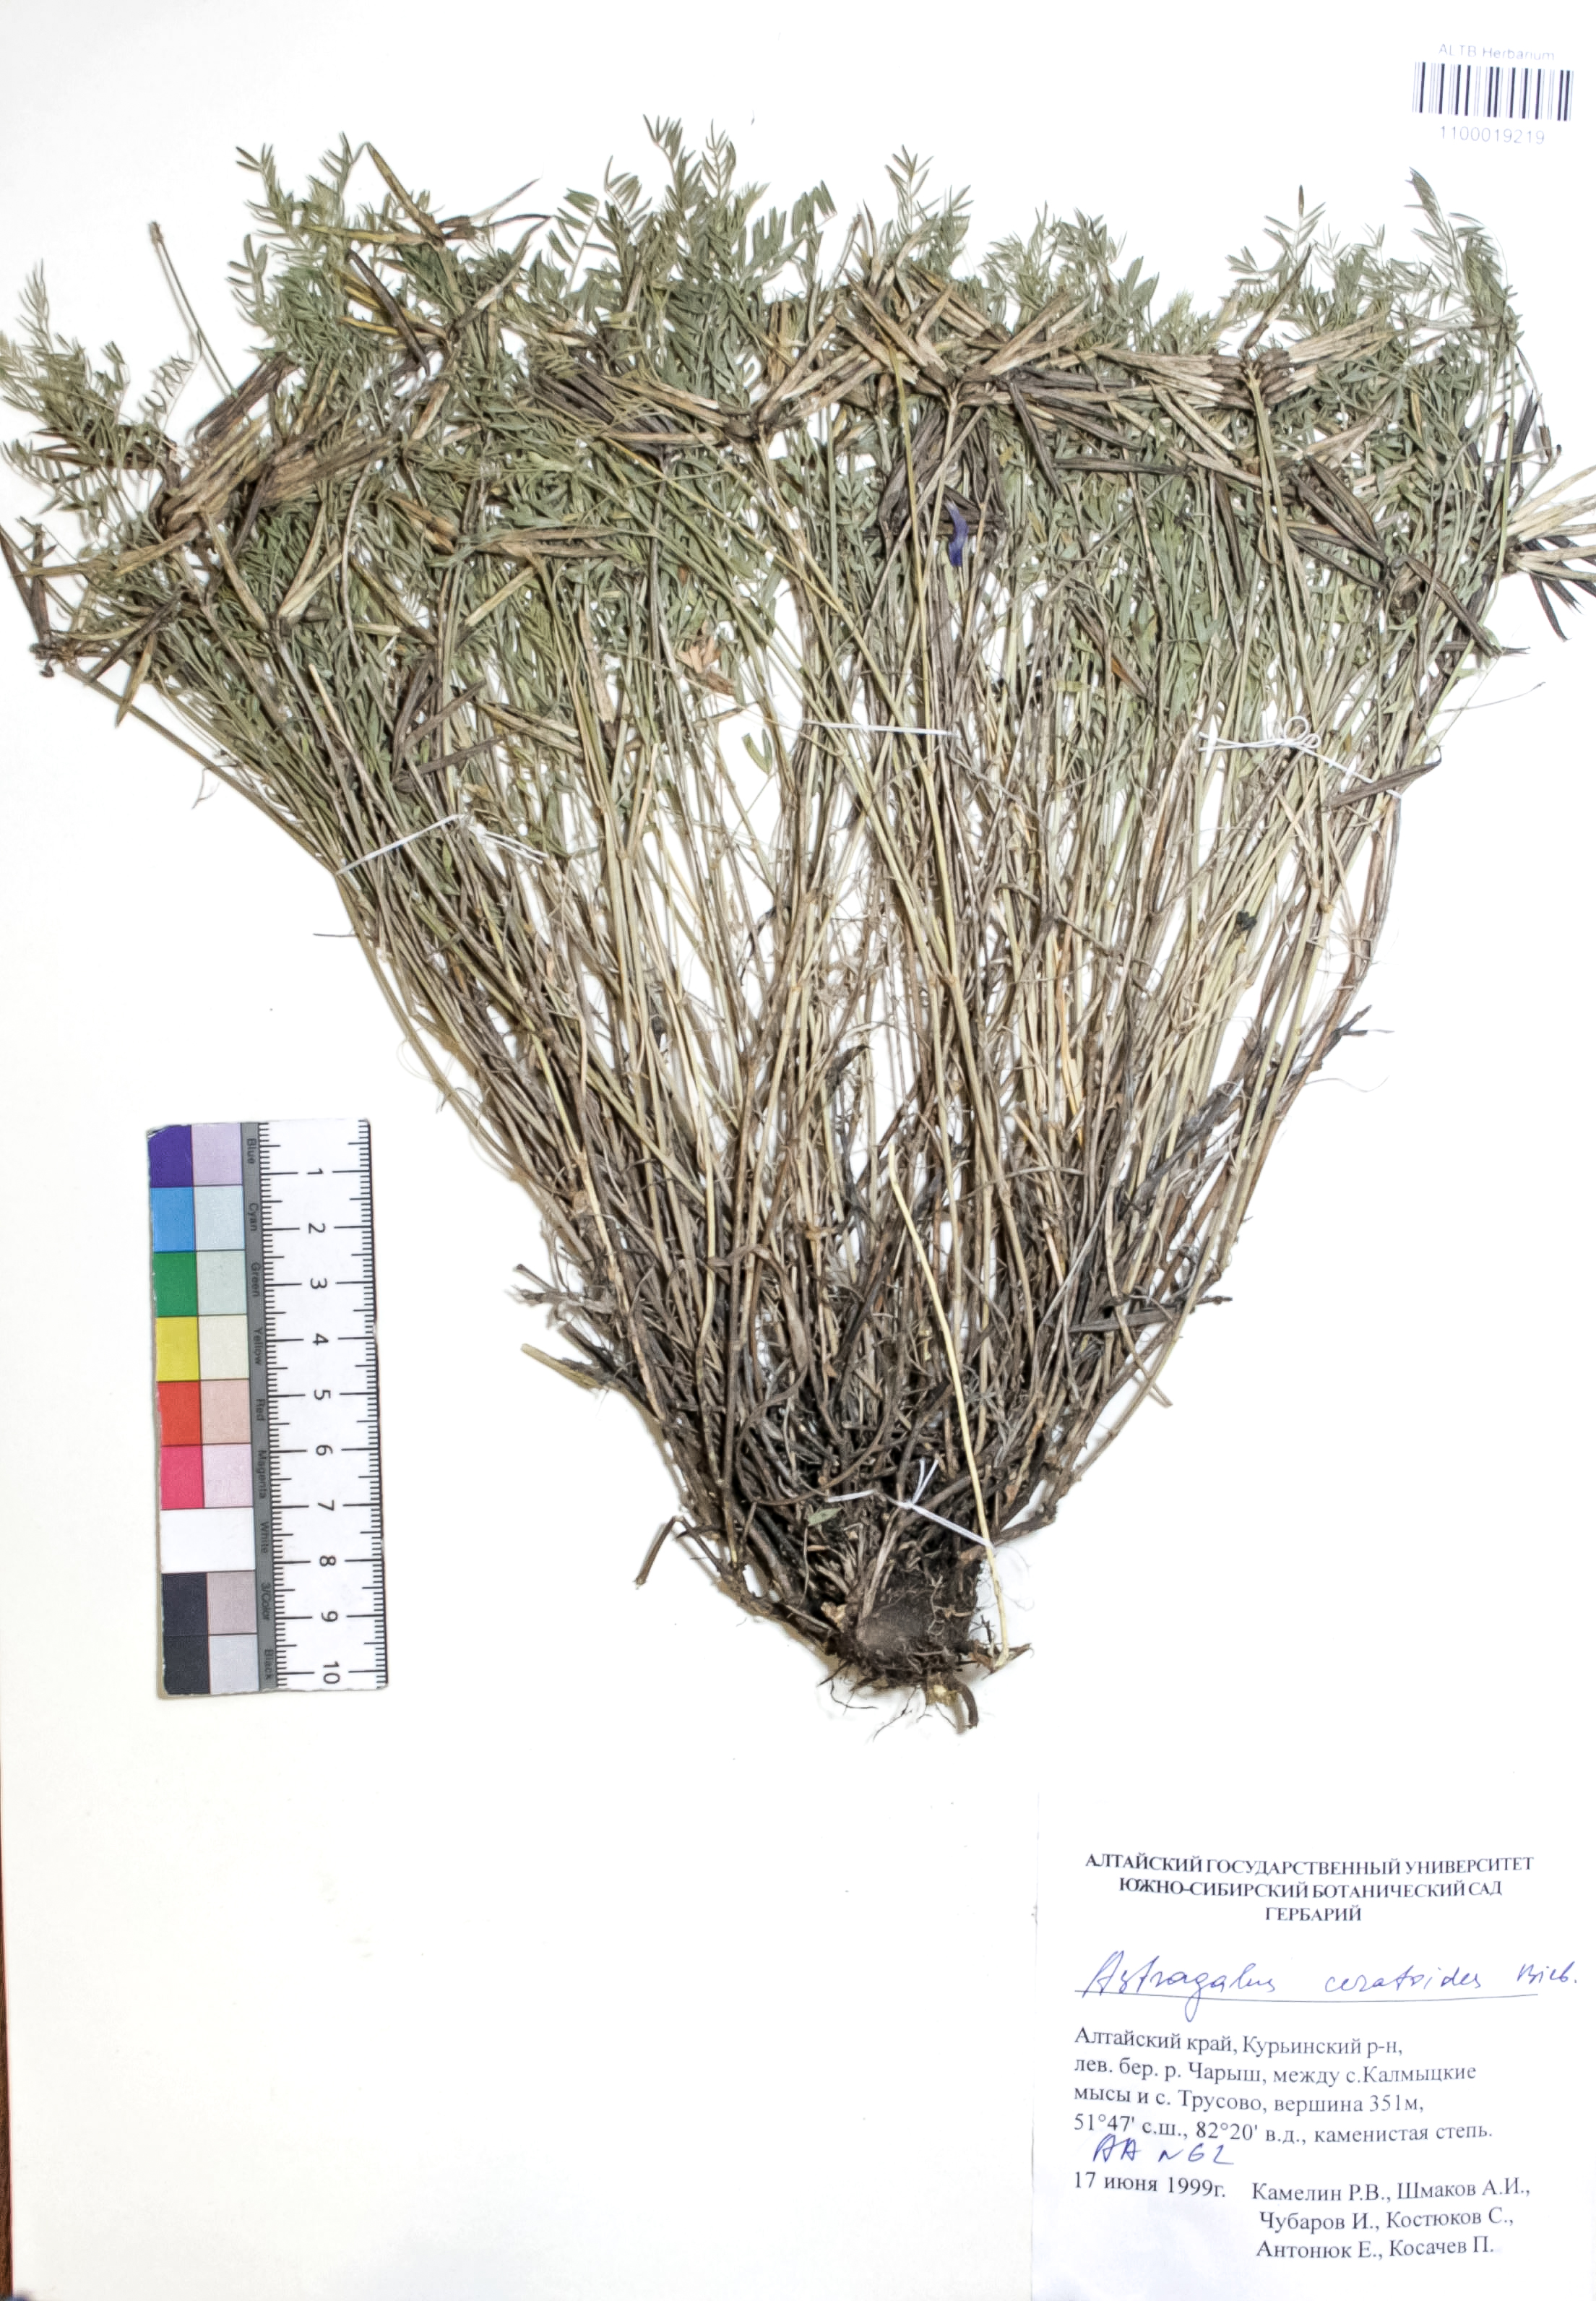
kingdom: Plantae
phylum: Tracheophyta
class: Magnoliopsida
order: Fabales
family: Fabaceae
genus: Astragalus
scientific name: Astragalus ceratoides
